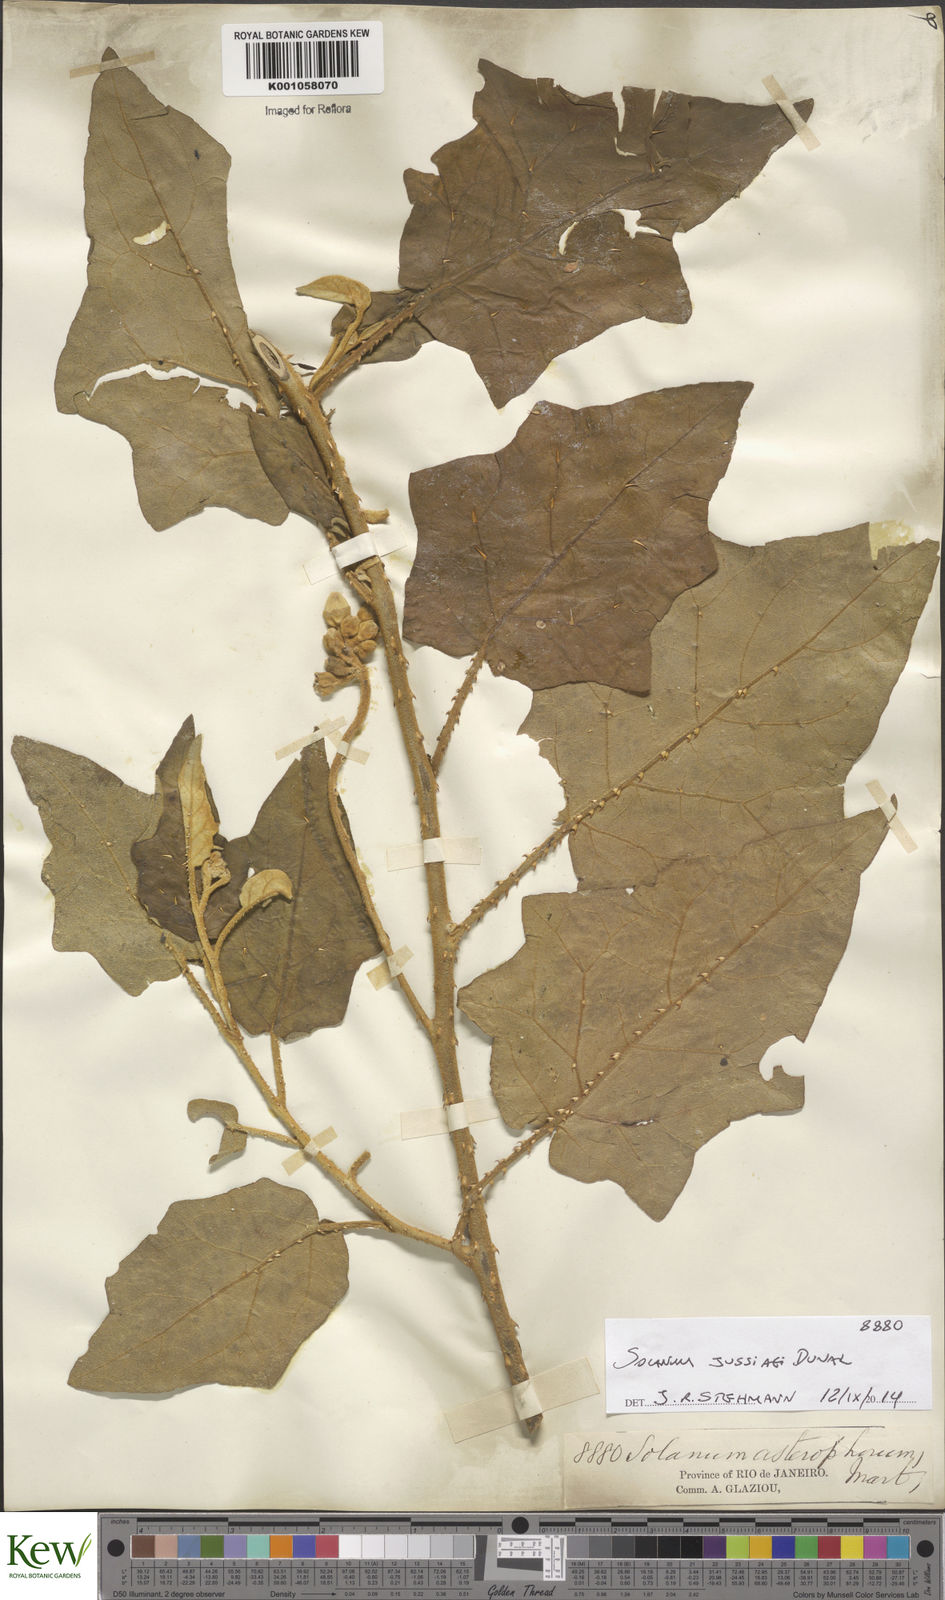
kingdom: Plantae
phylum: Tracheophyta
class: Magnoliopsida
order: Solanales
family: Solanaceae
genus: Solanum
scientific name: Solanum asterophorum
